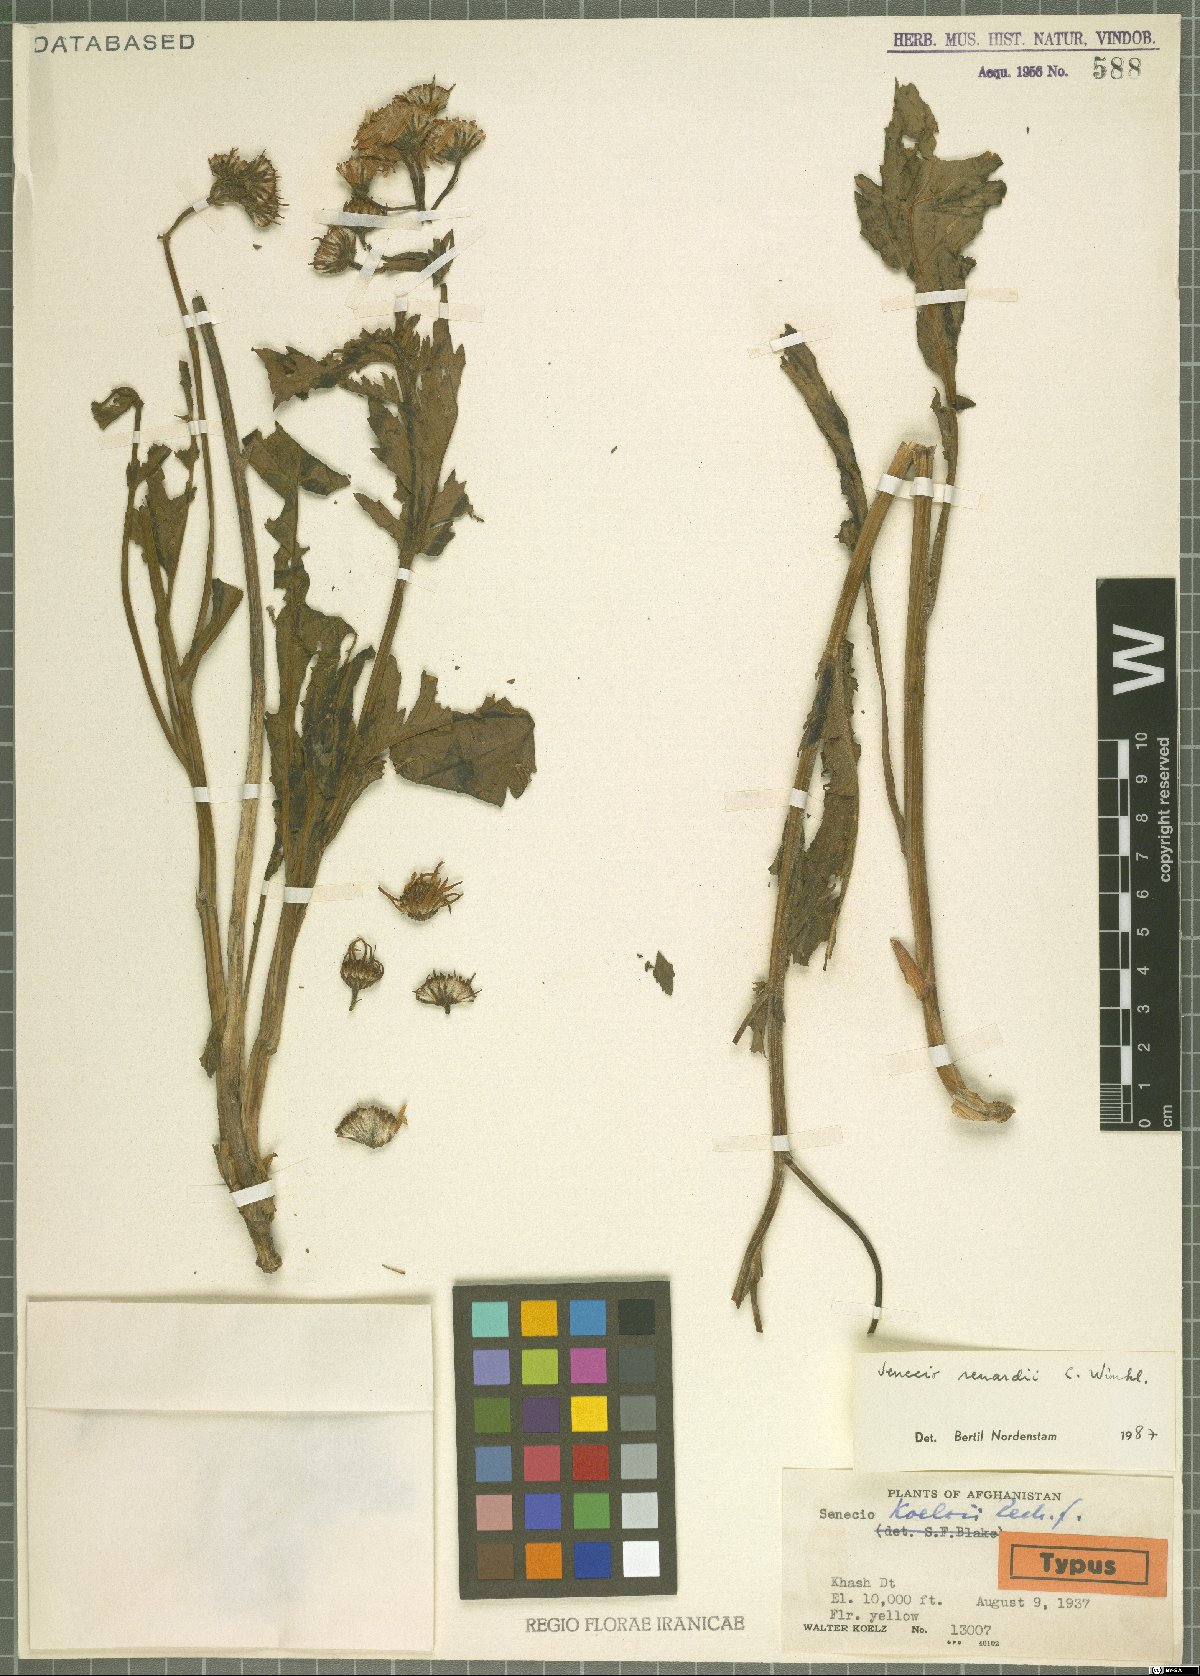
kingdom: Plantae
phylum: Tracheophyta
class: Magnoliopsida
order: Asterales
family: Asteraceae
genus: Jacobaea
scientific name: Jacobaea renardii
